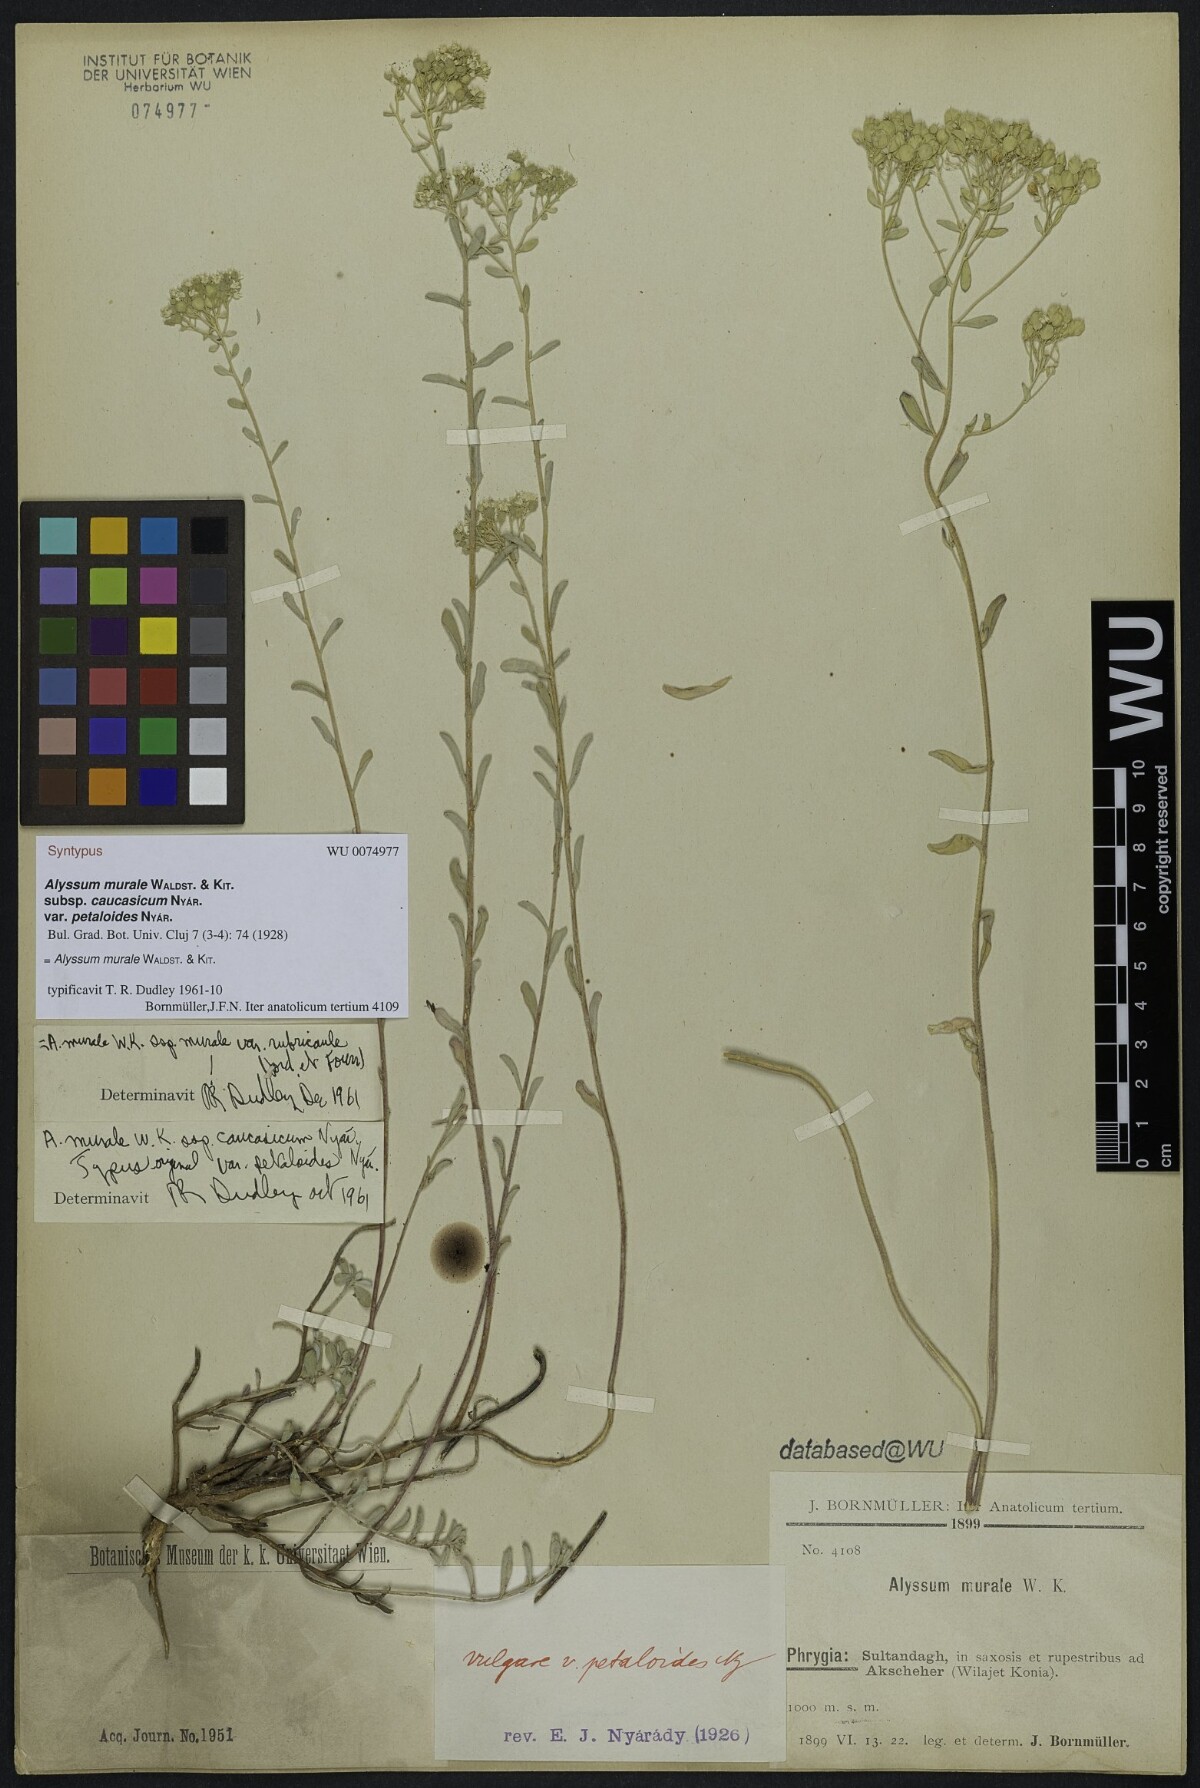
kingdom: Plantae
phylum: Tracheophyta
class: Magnoliopsida
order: Brassicales
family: Brassicaceae
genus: Odontarrhena
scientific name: Odontarrhena muralis
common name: Rock alyssum
